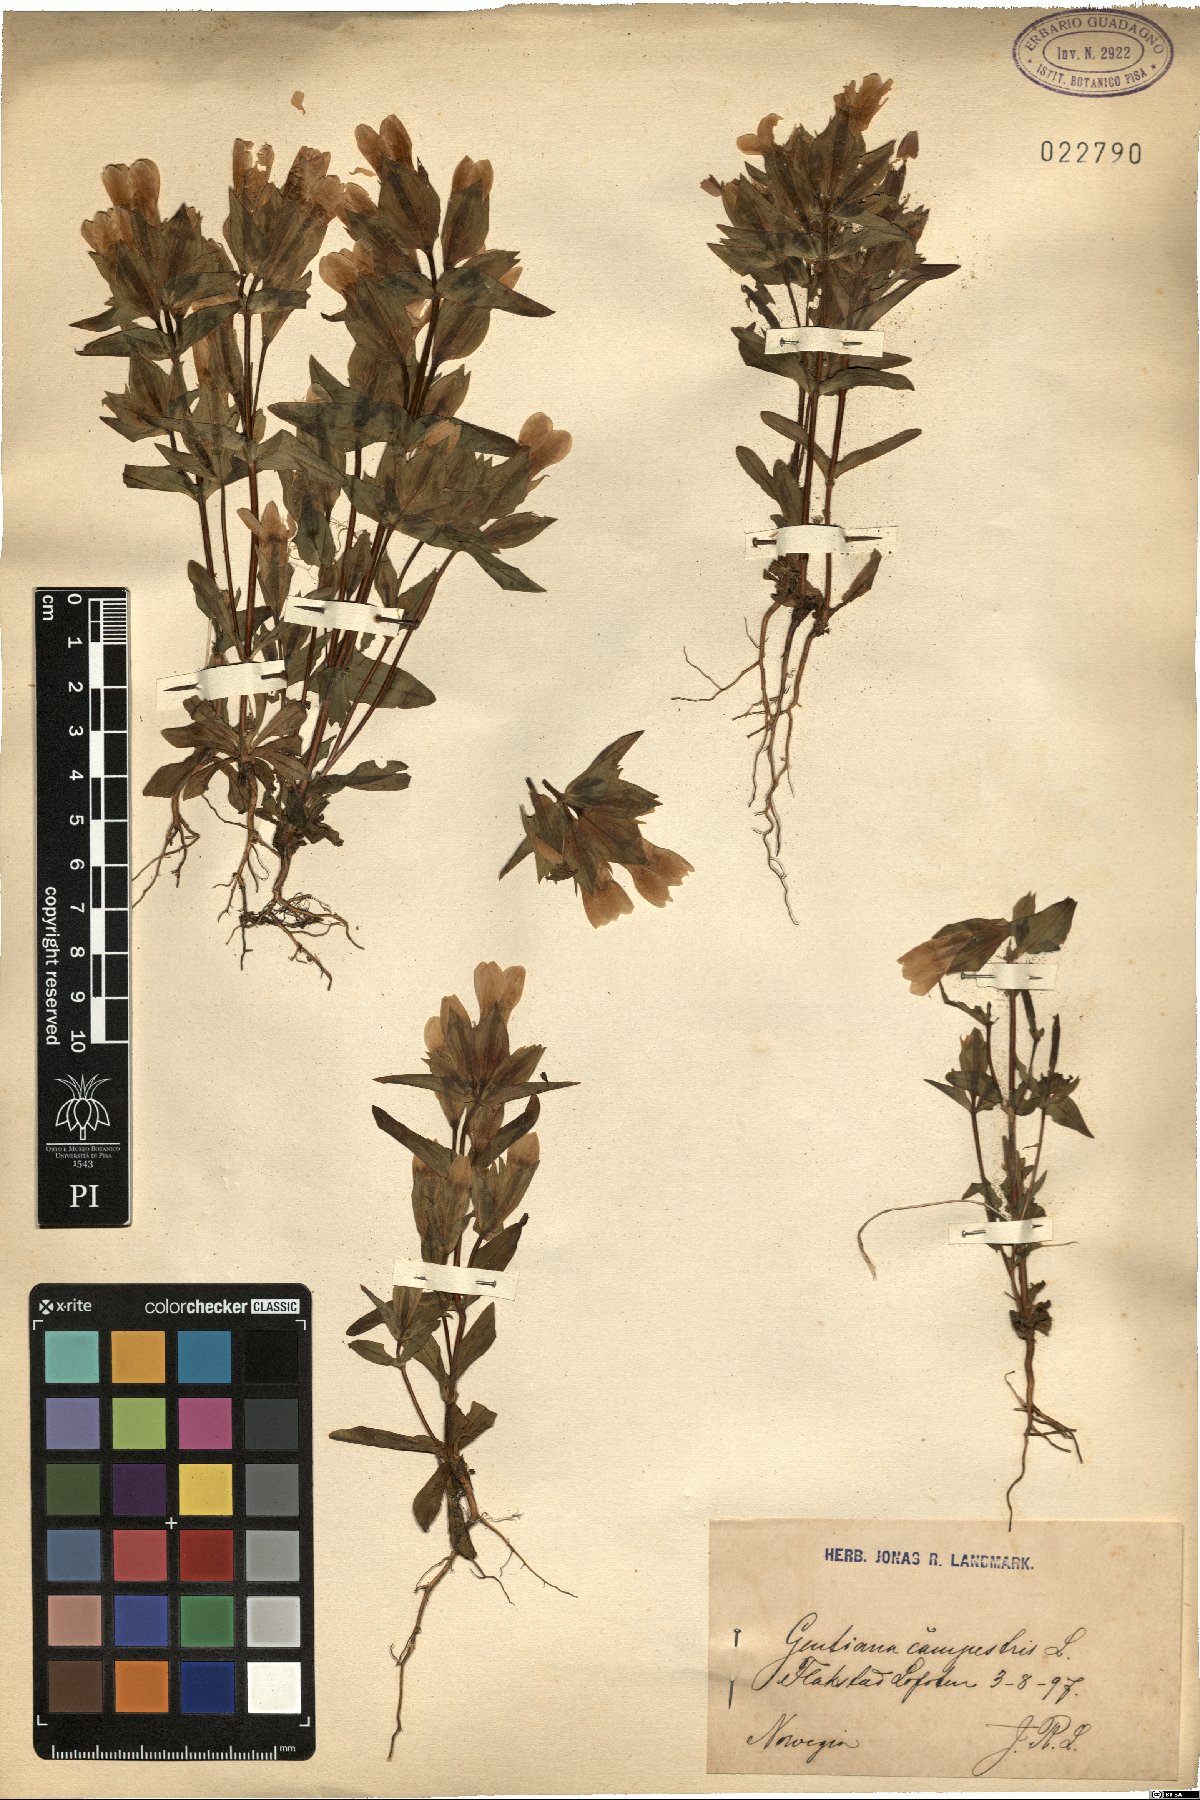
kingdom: Plantae
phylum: Tracheophyta
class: Magnoliopsida
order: Gentianales
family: Gentianaceae
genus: Gentianella
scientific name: Gentianella campestris
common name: Field gentian
